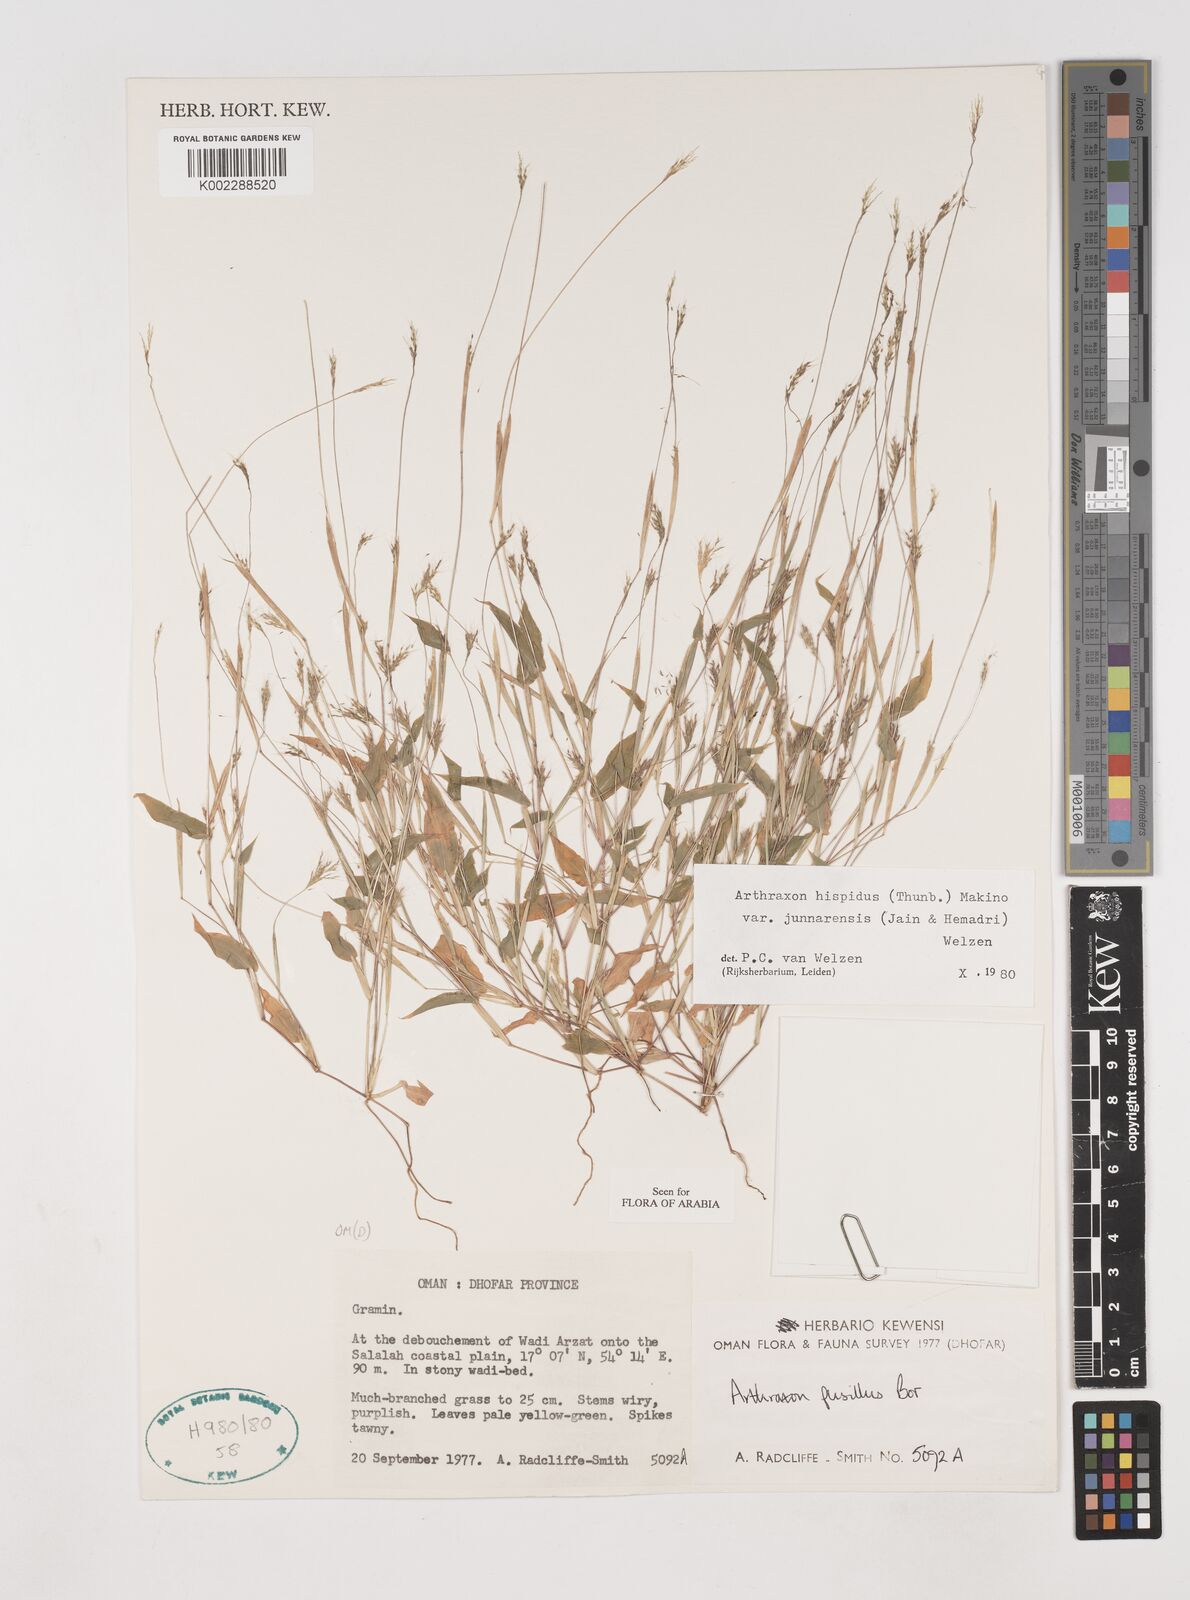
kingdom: Plantae
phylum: Tracheophyta
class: Liliopsida
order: Poales
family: Poaceae
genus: Arthraxon
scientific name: Arthraxon junnarensis
